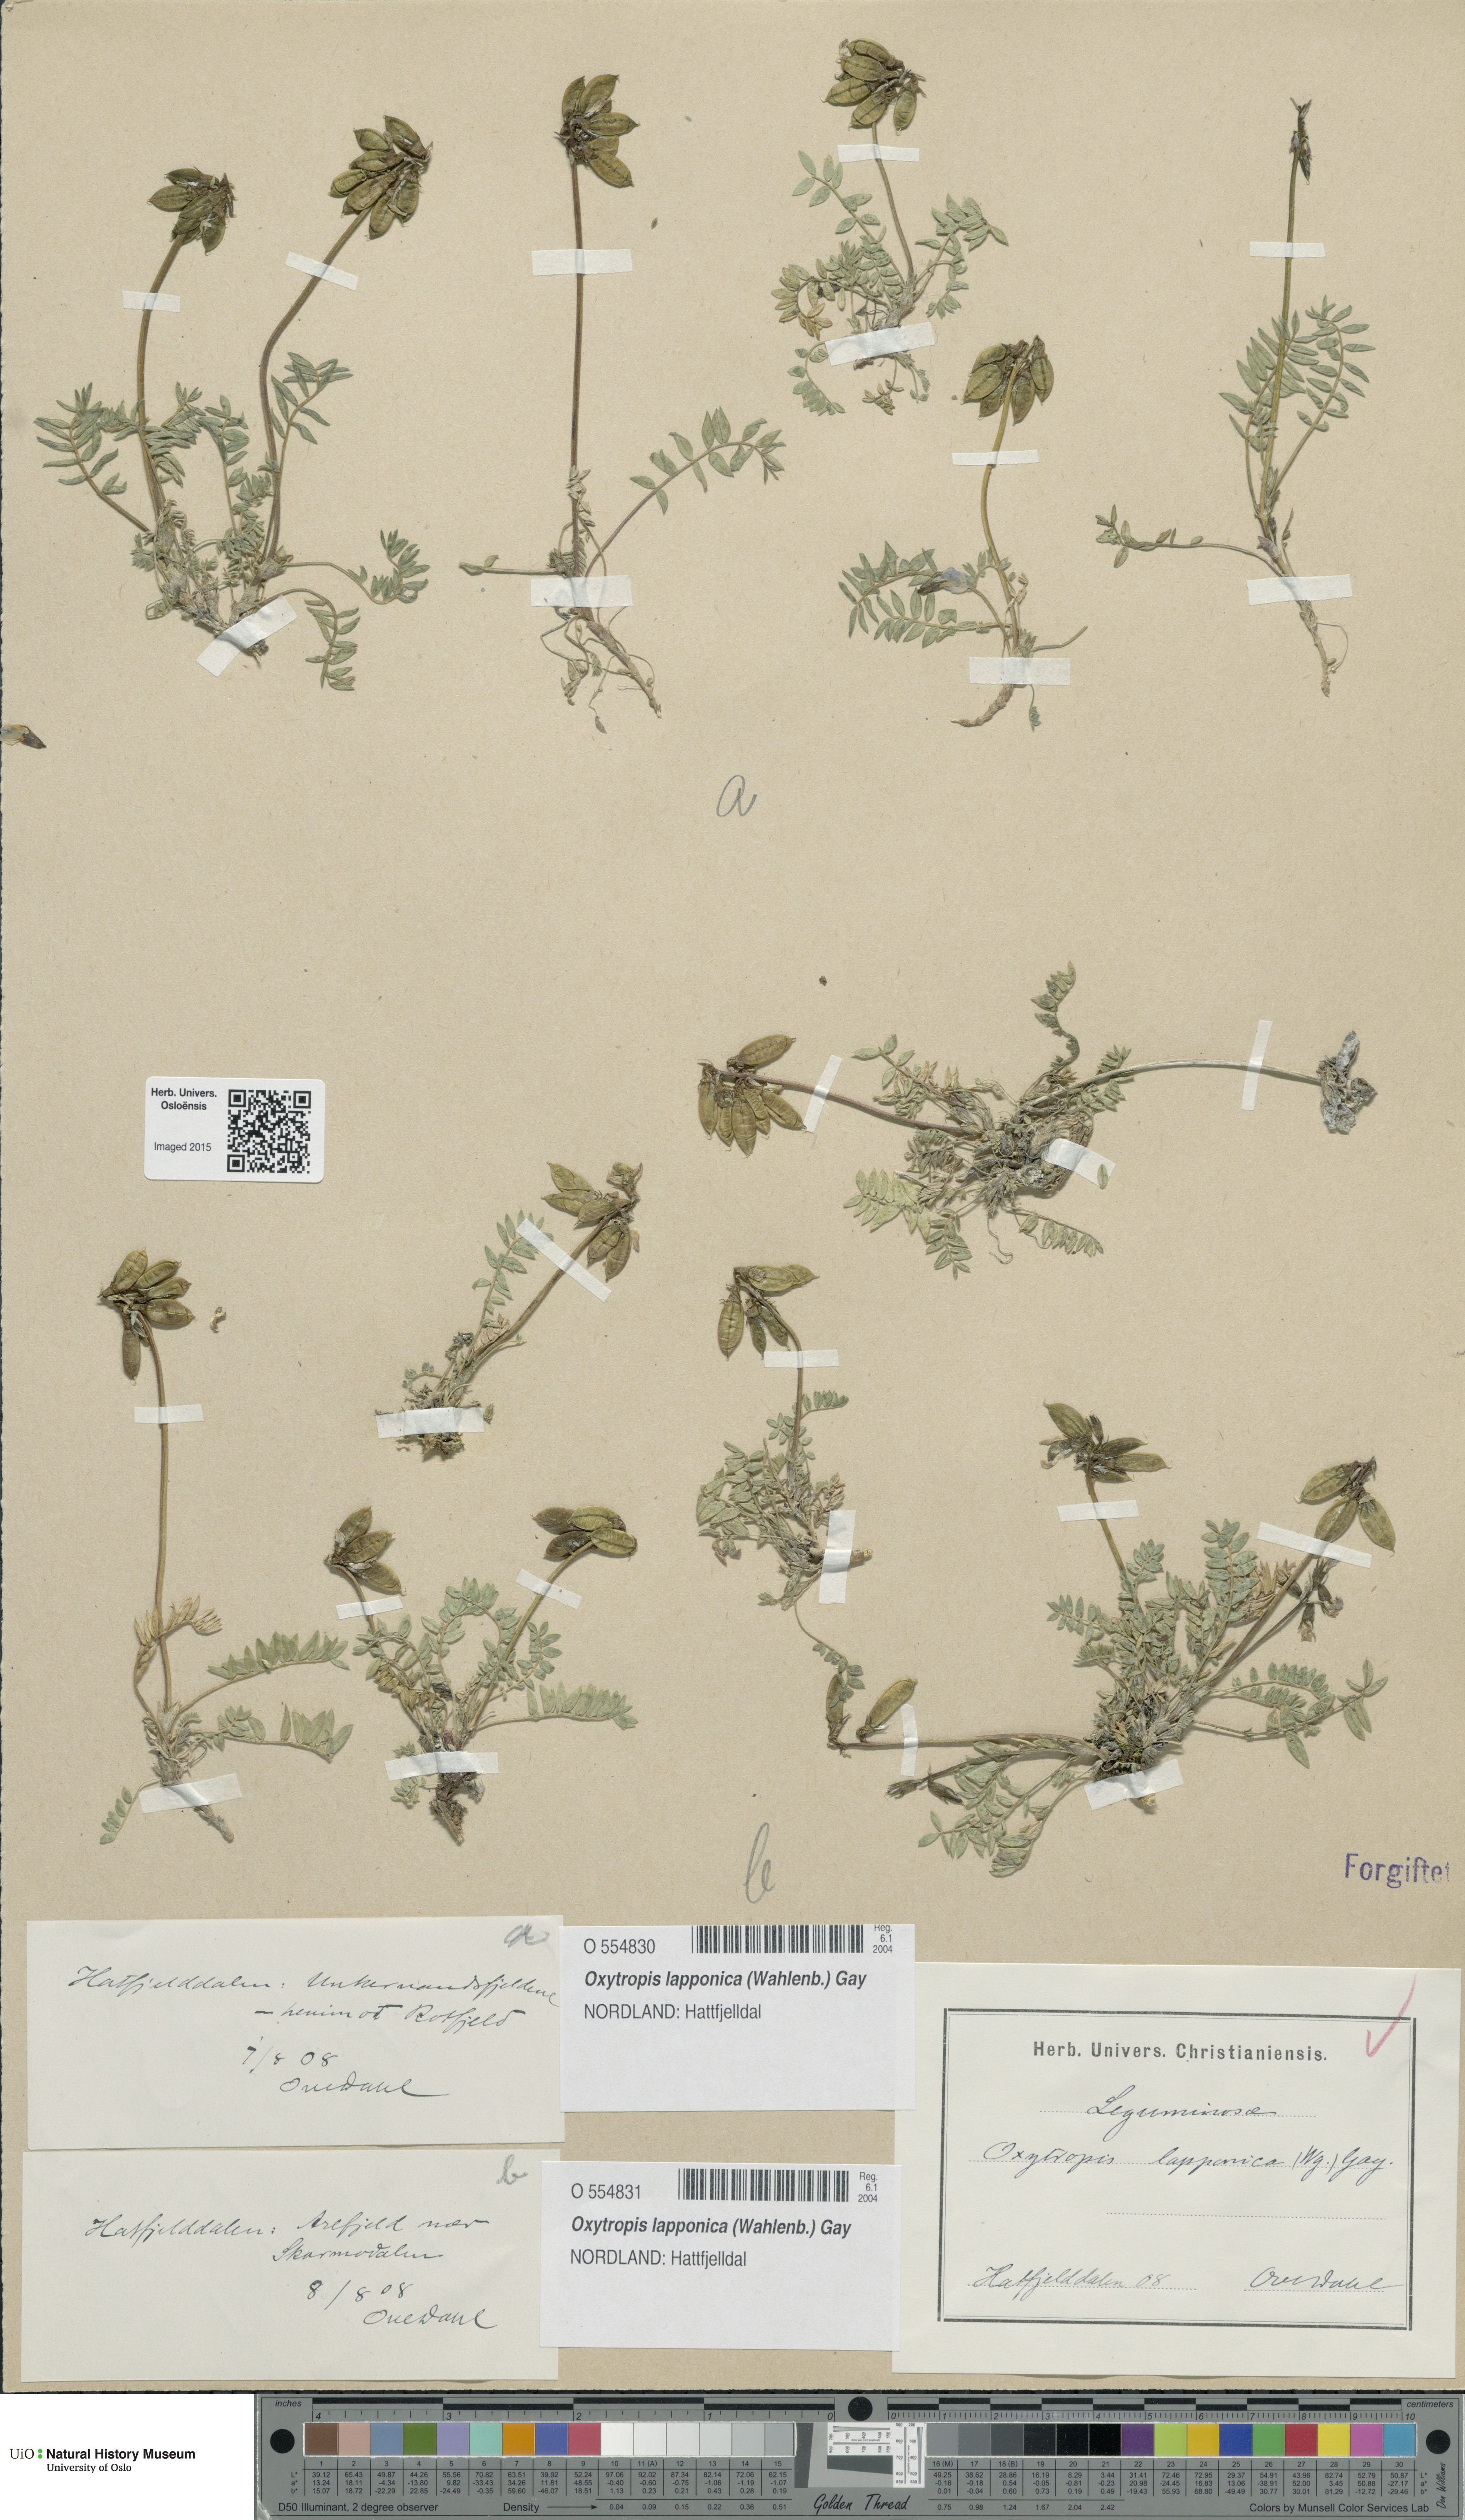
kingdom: Plantae
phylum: Tracheophyta
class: Magnoliopsida
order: Fabales
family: Fabaceae
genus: Oxytropis
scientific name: Oxytropis lapponica
